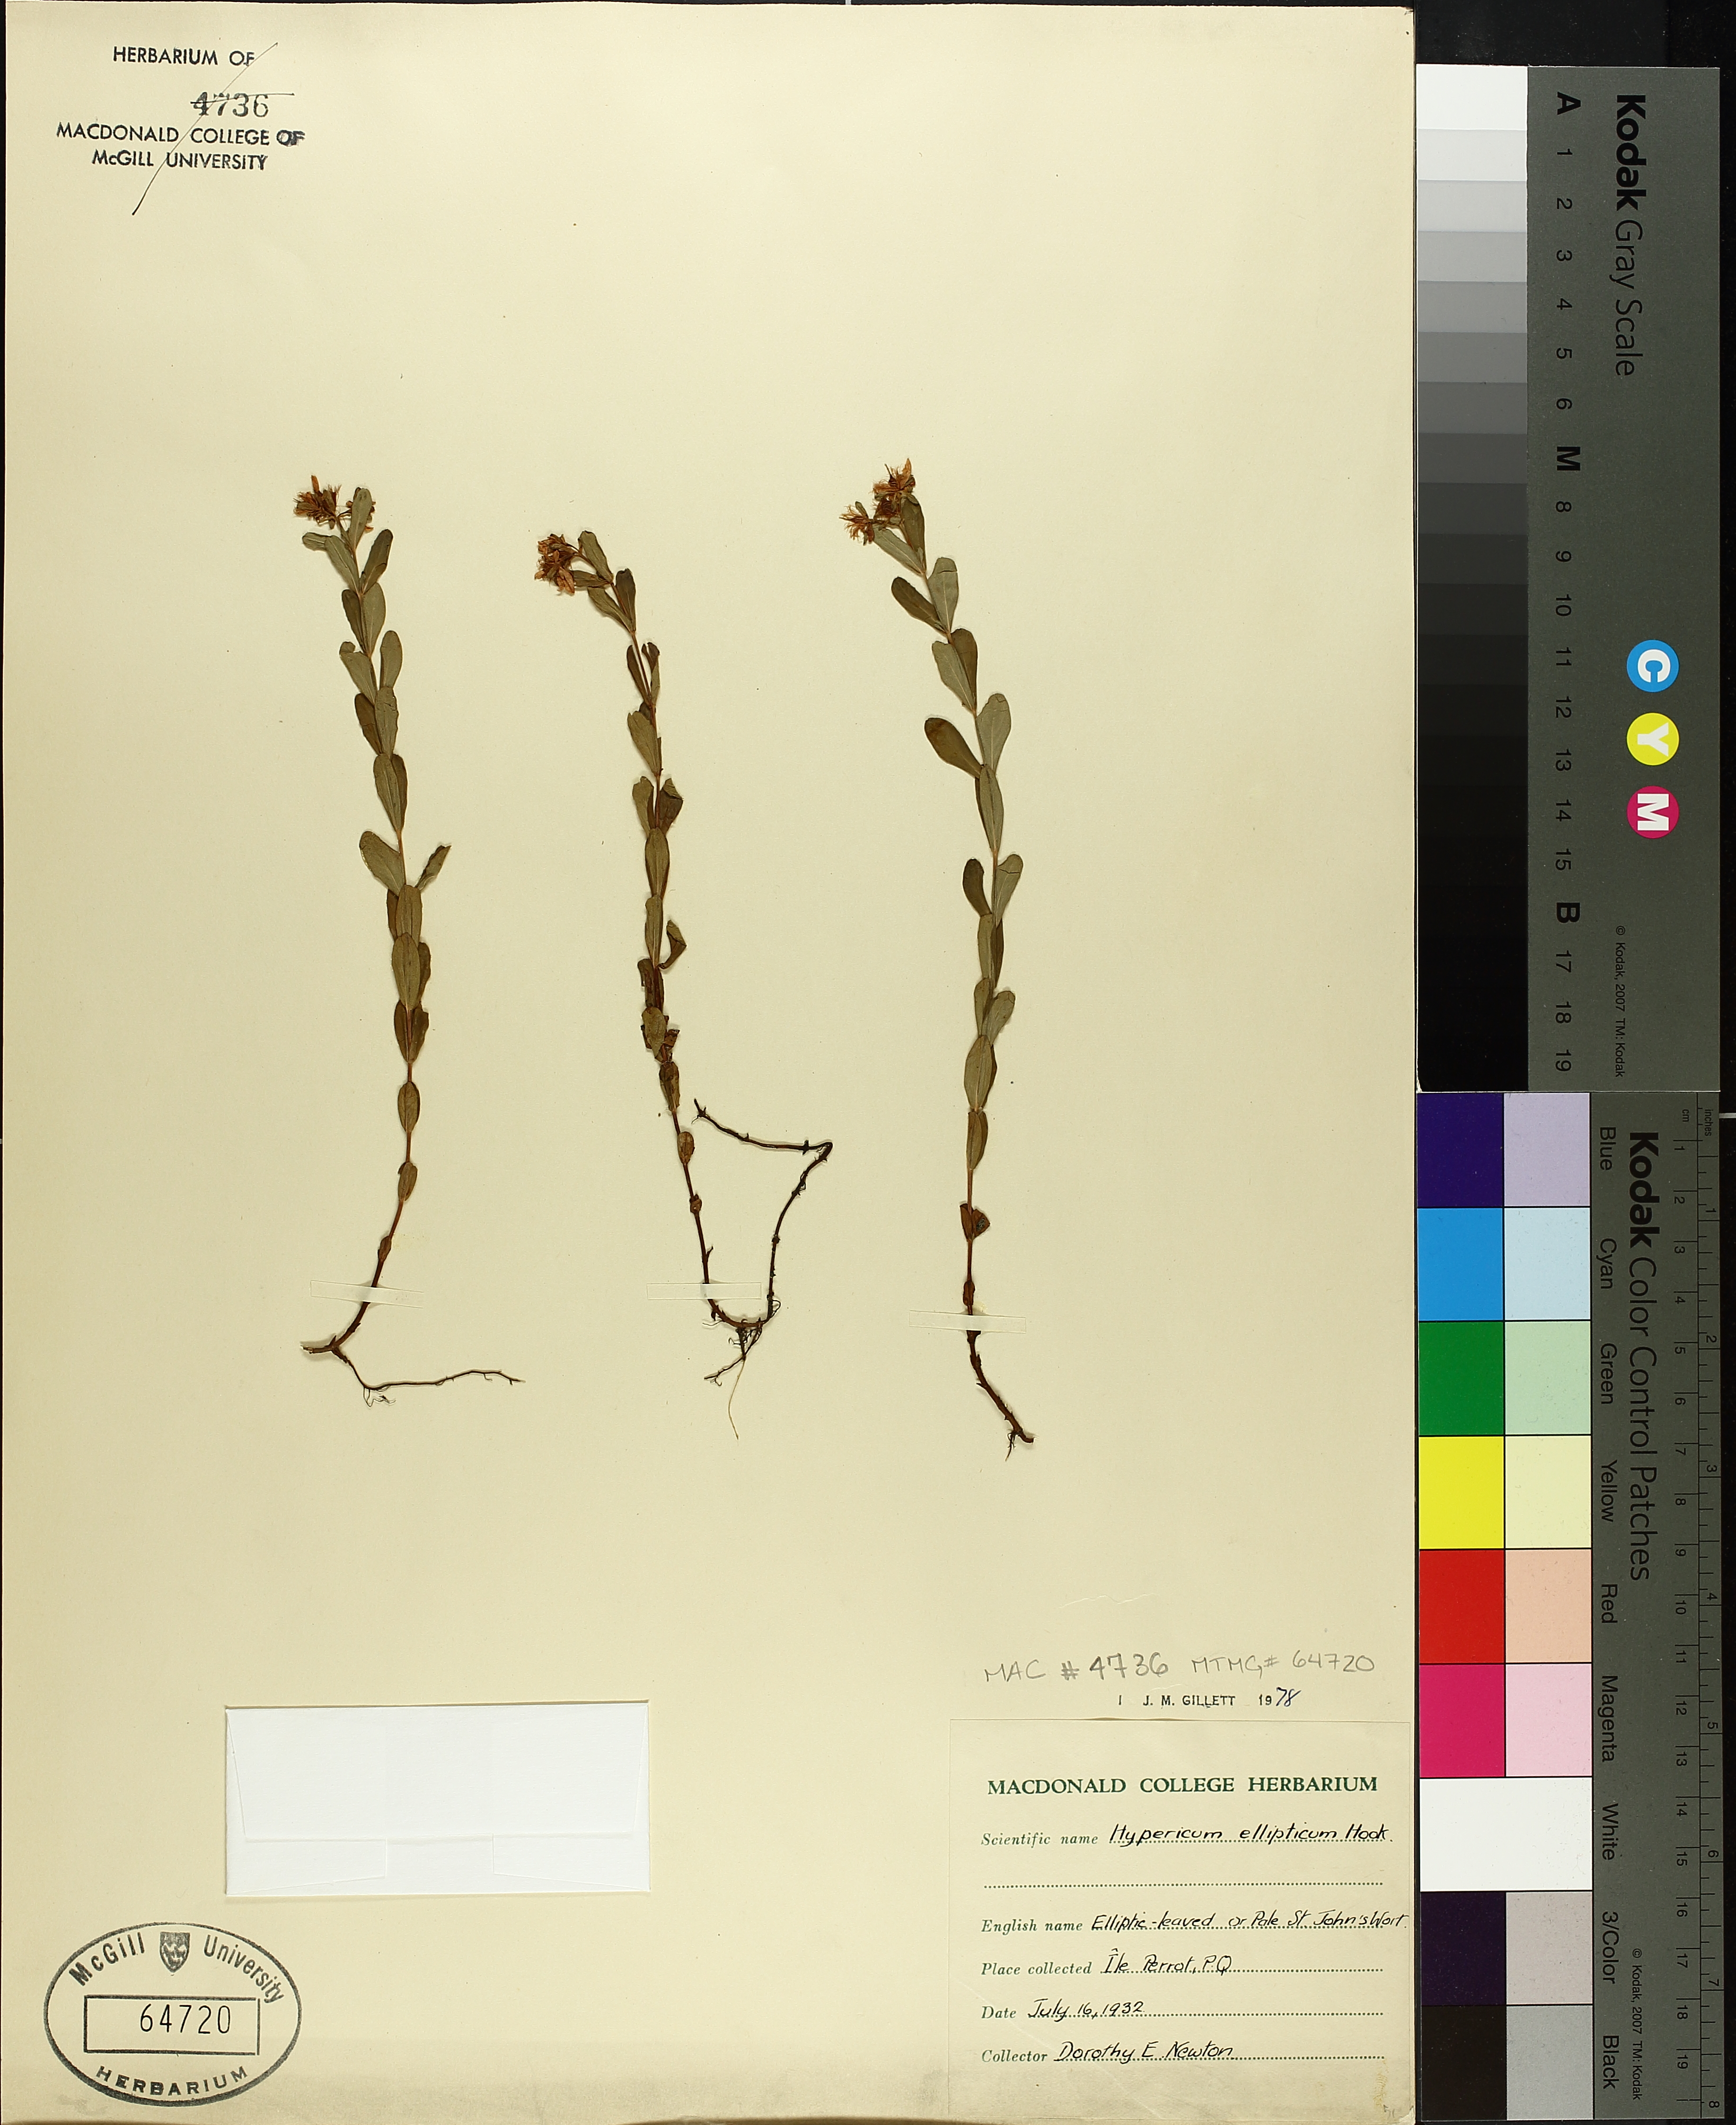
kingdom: Plantae
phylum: Tracheophyta
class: Magnoliopsida
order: Malpighiales
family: Hypericaceae
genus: Hypericum
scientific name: Hypericum ellipticum
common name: Elliptic st. john's-wort
